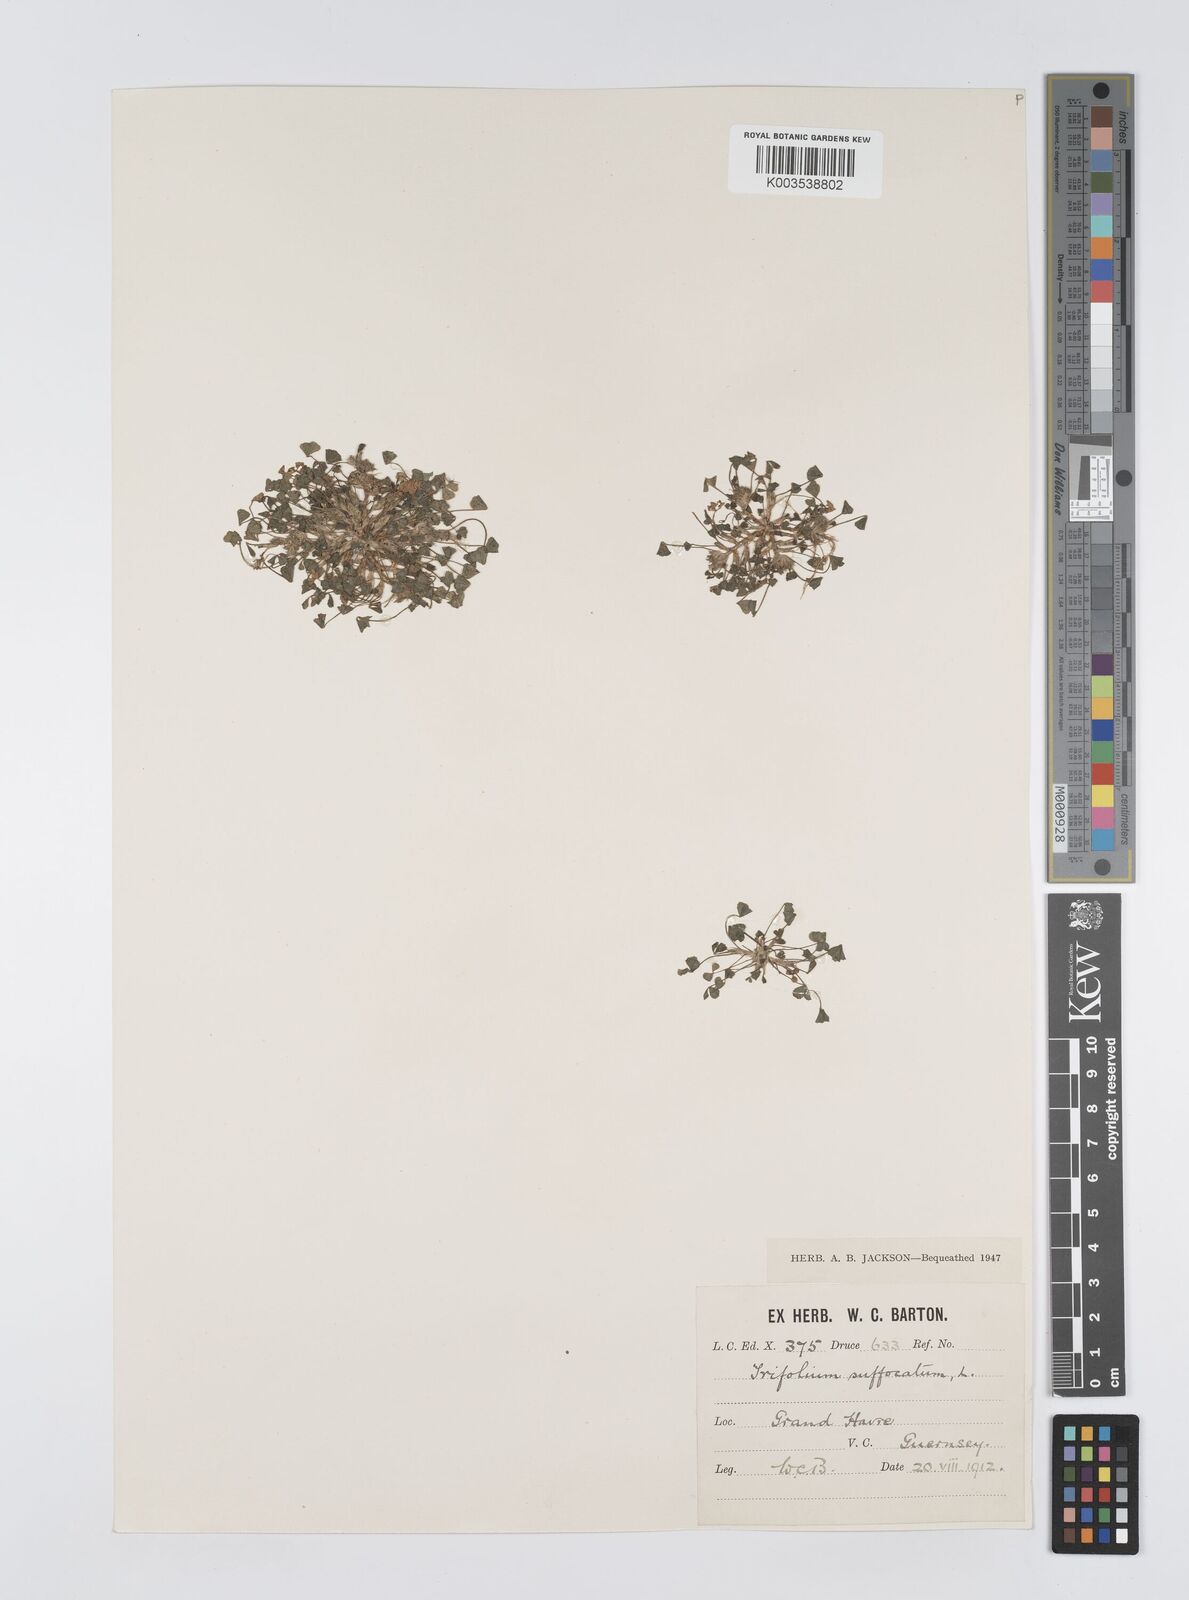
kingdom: Plantae
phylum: Tracheophyta
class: Magnoliopsida
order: Fabales
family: Fabaceae
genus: Trifolium
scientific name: Trifolium suffocatum
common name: Suffocated clover
